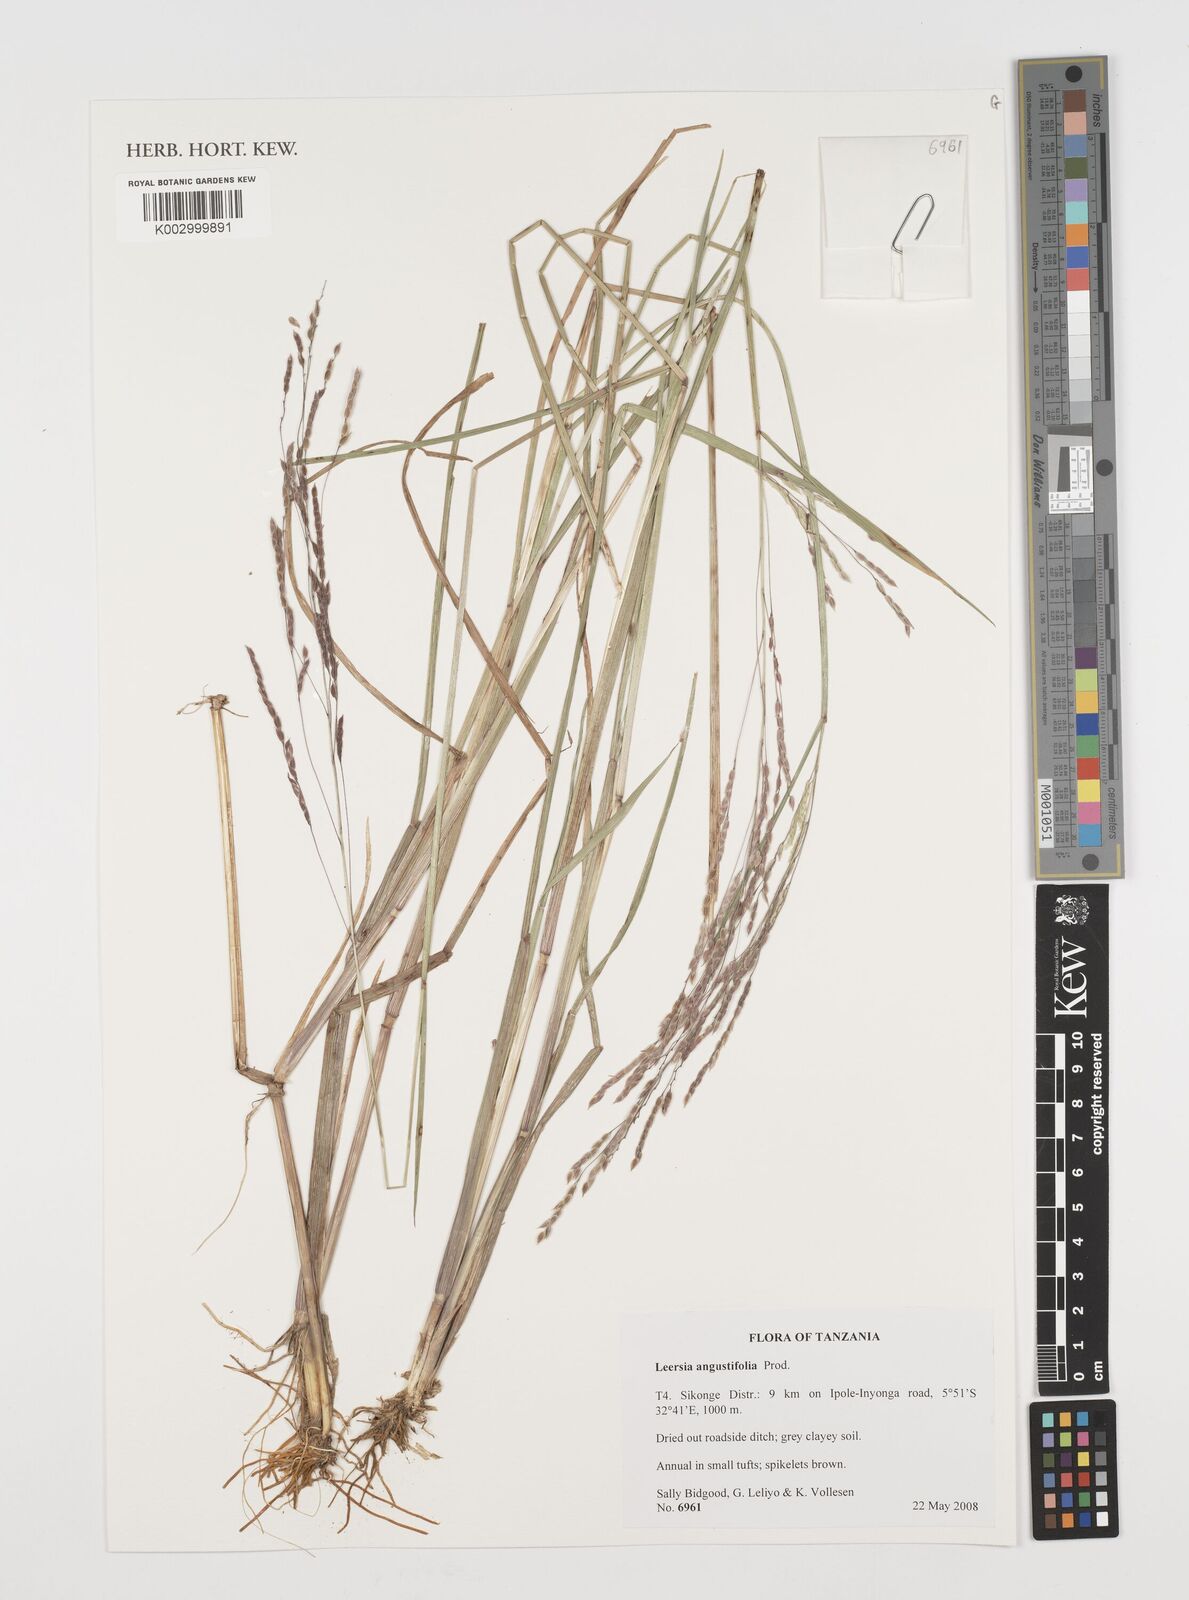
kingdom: Plantae
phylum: Tracheophyta
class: Liliopsida
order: Poales
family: Poaceae
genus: Leersia
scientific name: Leersia angustifolia
